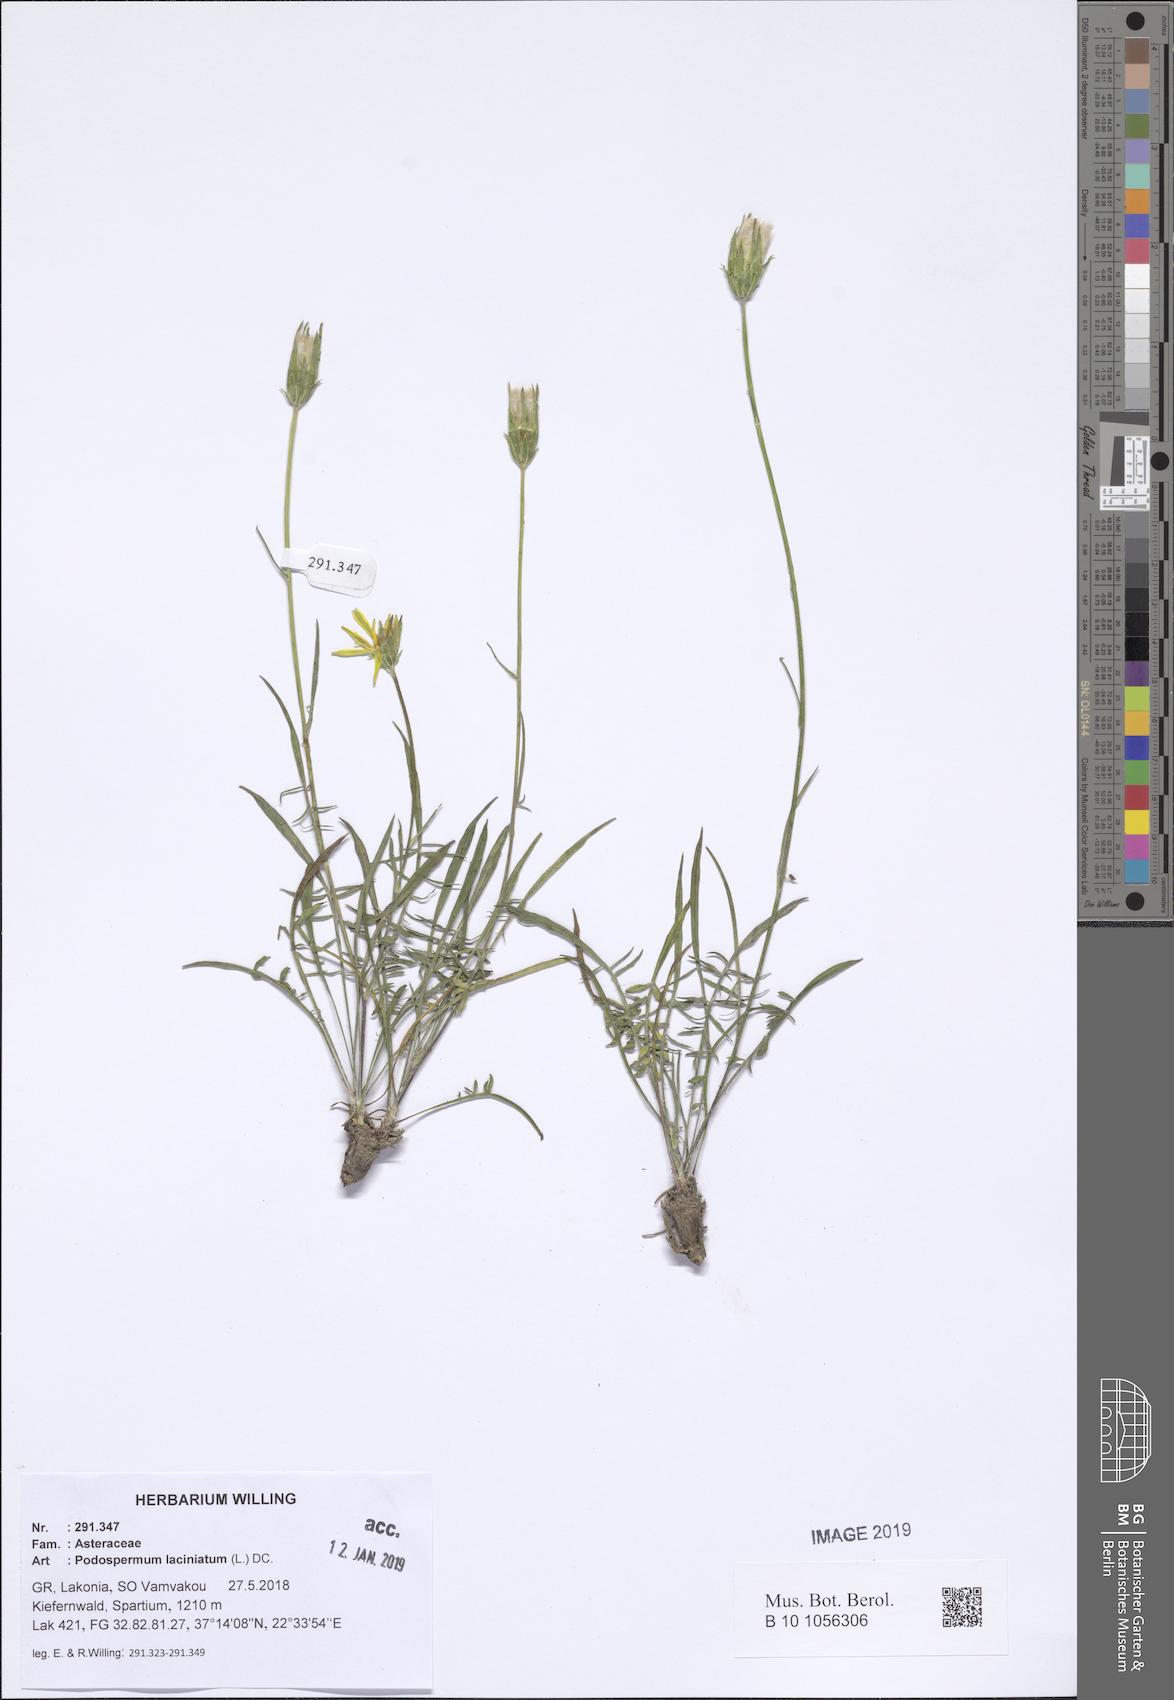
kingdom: Plantae
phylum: Tracheophyta
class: Magnoliopsida
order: Asterales
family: Asteraceae
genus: Scorzonera
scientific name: Scorzonera laciniata
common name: Cutleaf vipergrass
